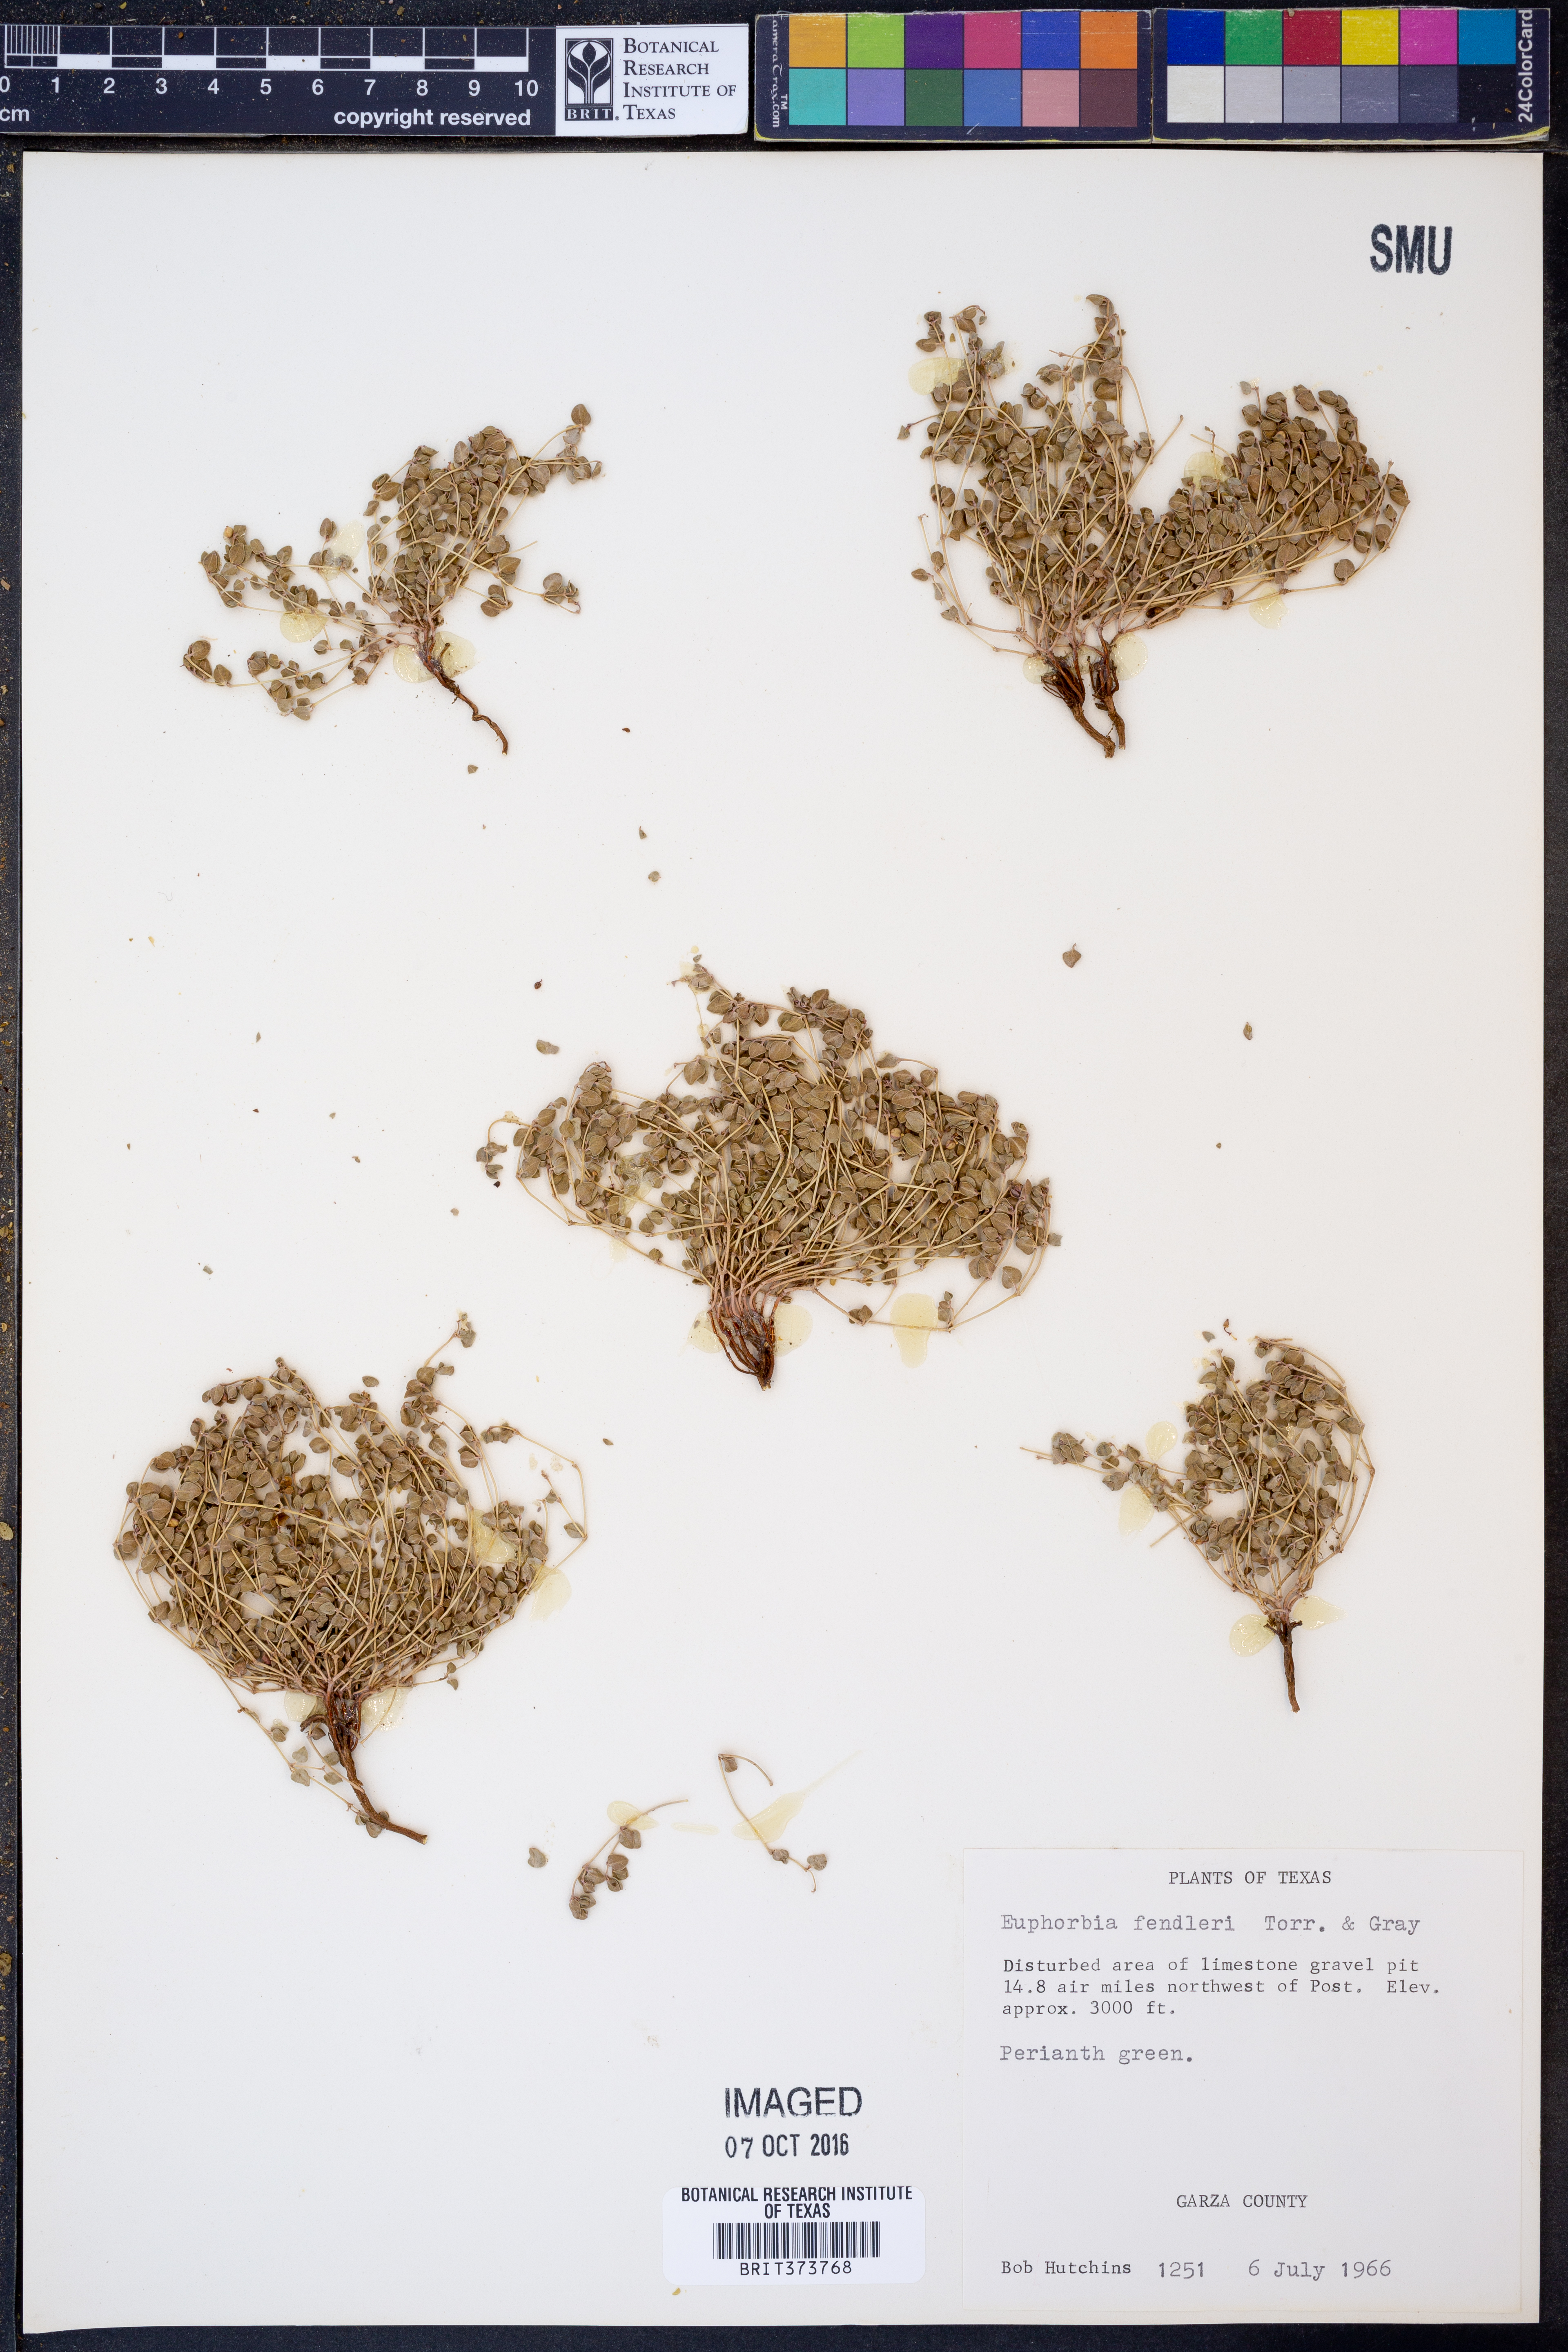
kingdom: Plantae
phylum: Tracheophyta
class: Magnoliopsida
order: Malpighiales
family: Euphorbiaceae
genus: Euphorbia
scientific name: Euphorbia fendleri
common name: Fendler's euphorbia
